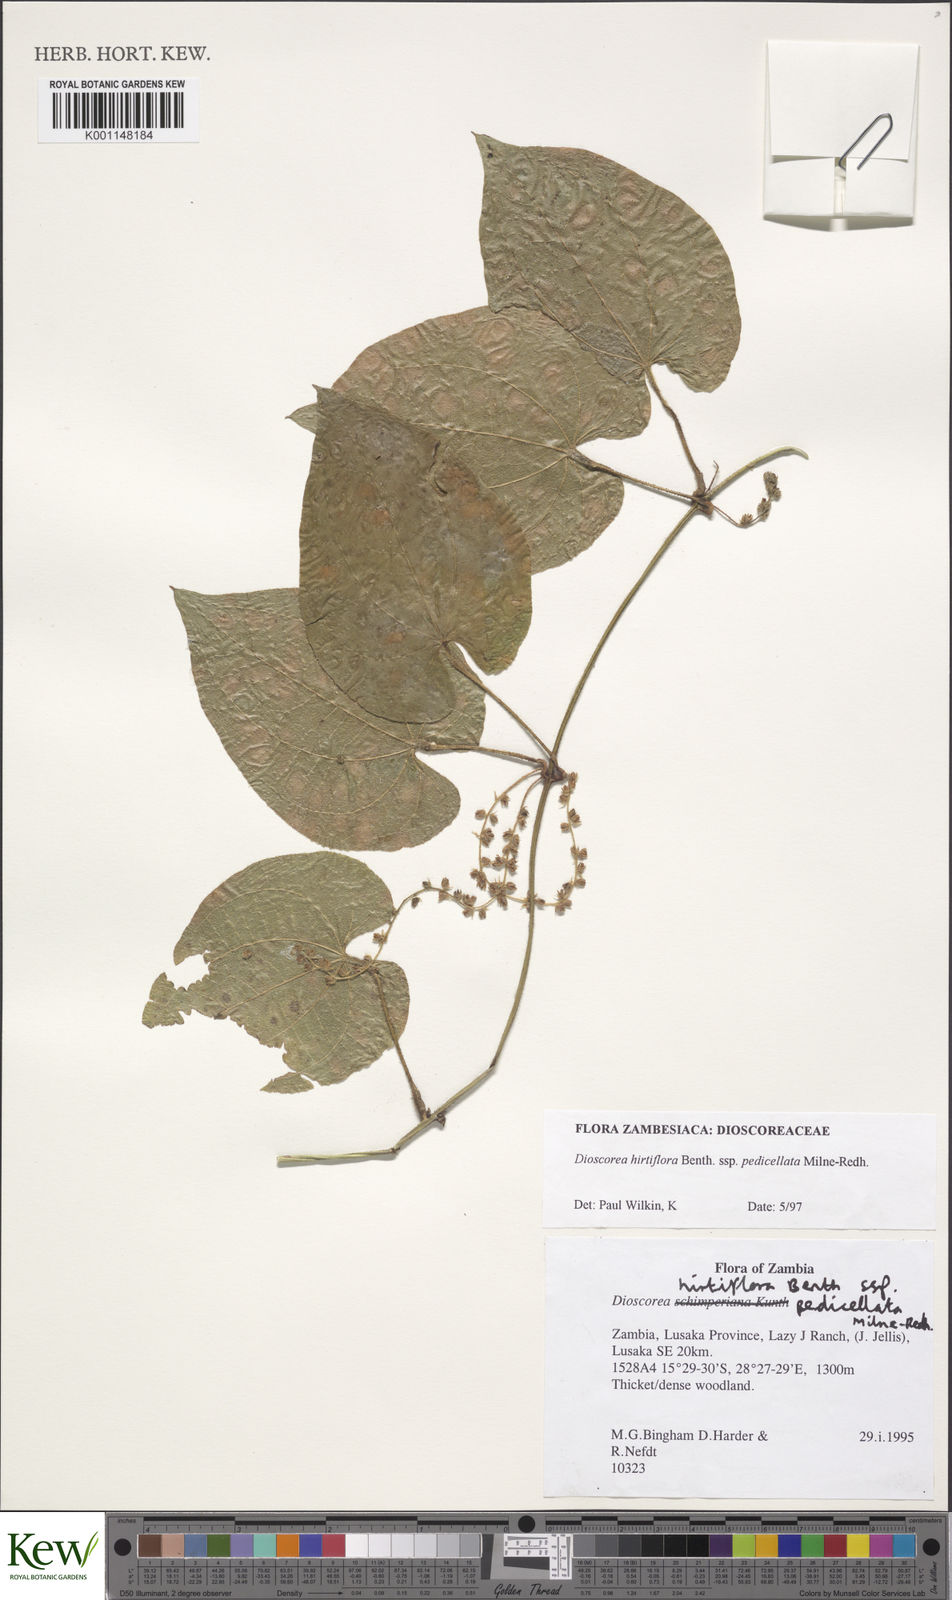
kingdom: Plantae
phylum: Tracheophyta
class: Liliopsida
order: Dioscoreales
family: Dioscoreaceae
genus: Dioscorea
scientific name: Dioscorea hirtiflora
